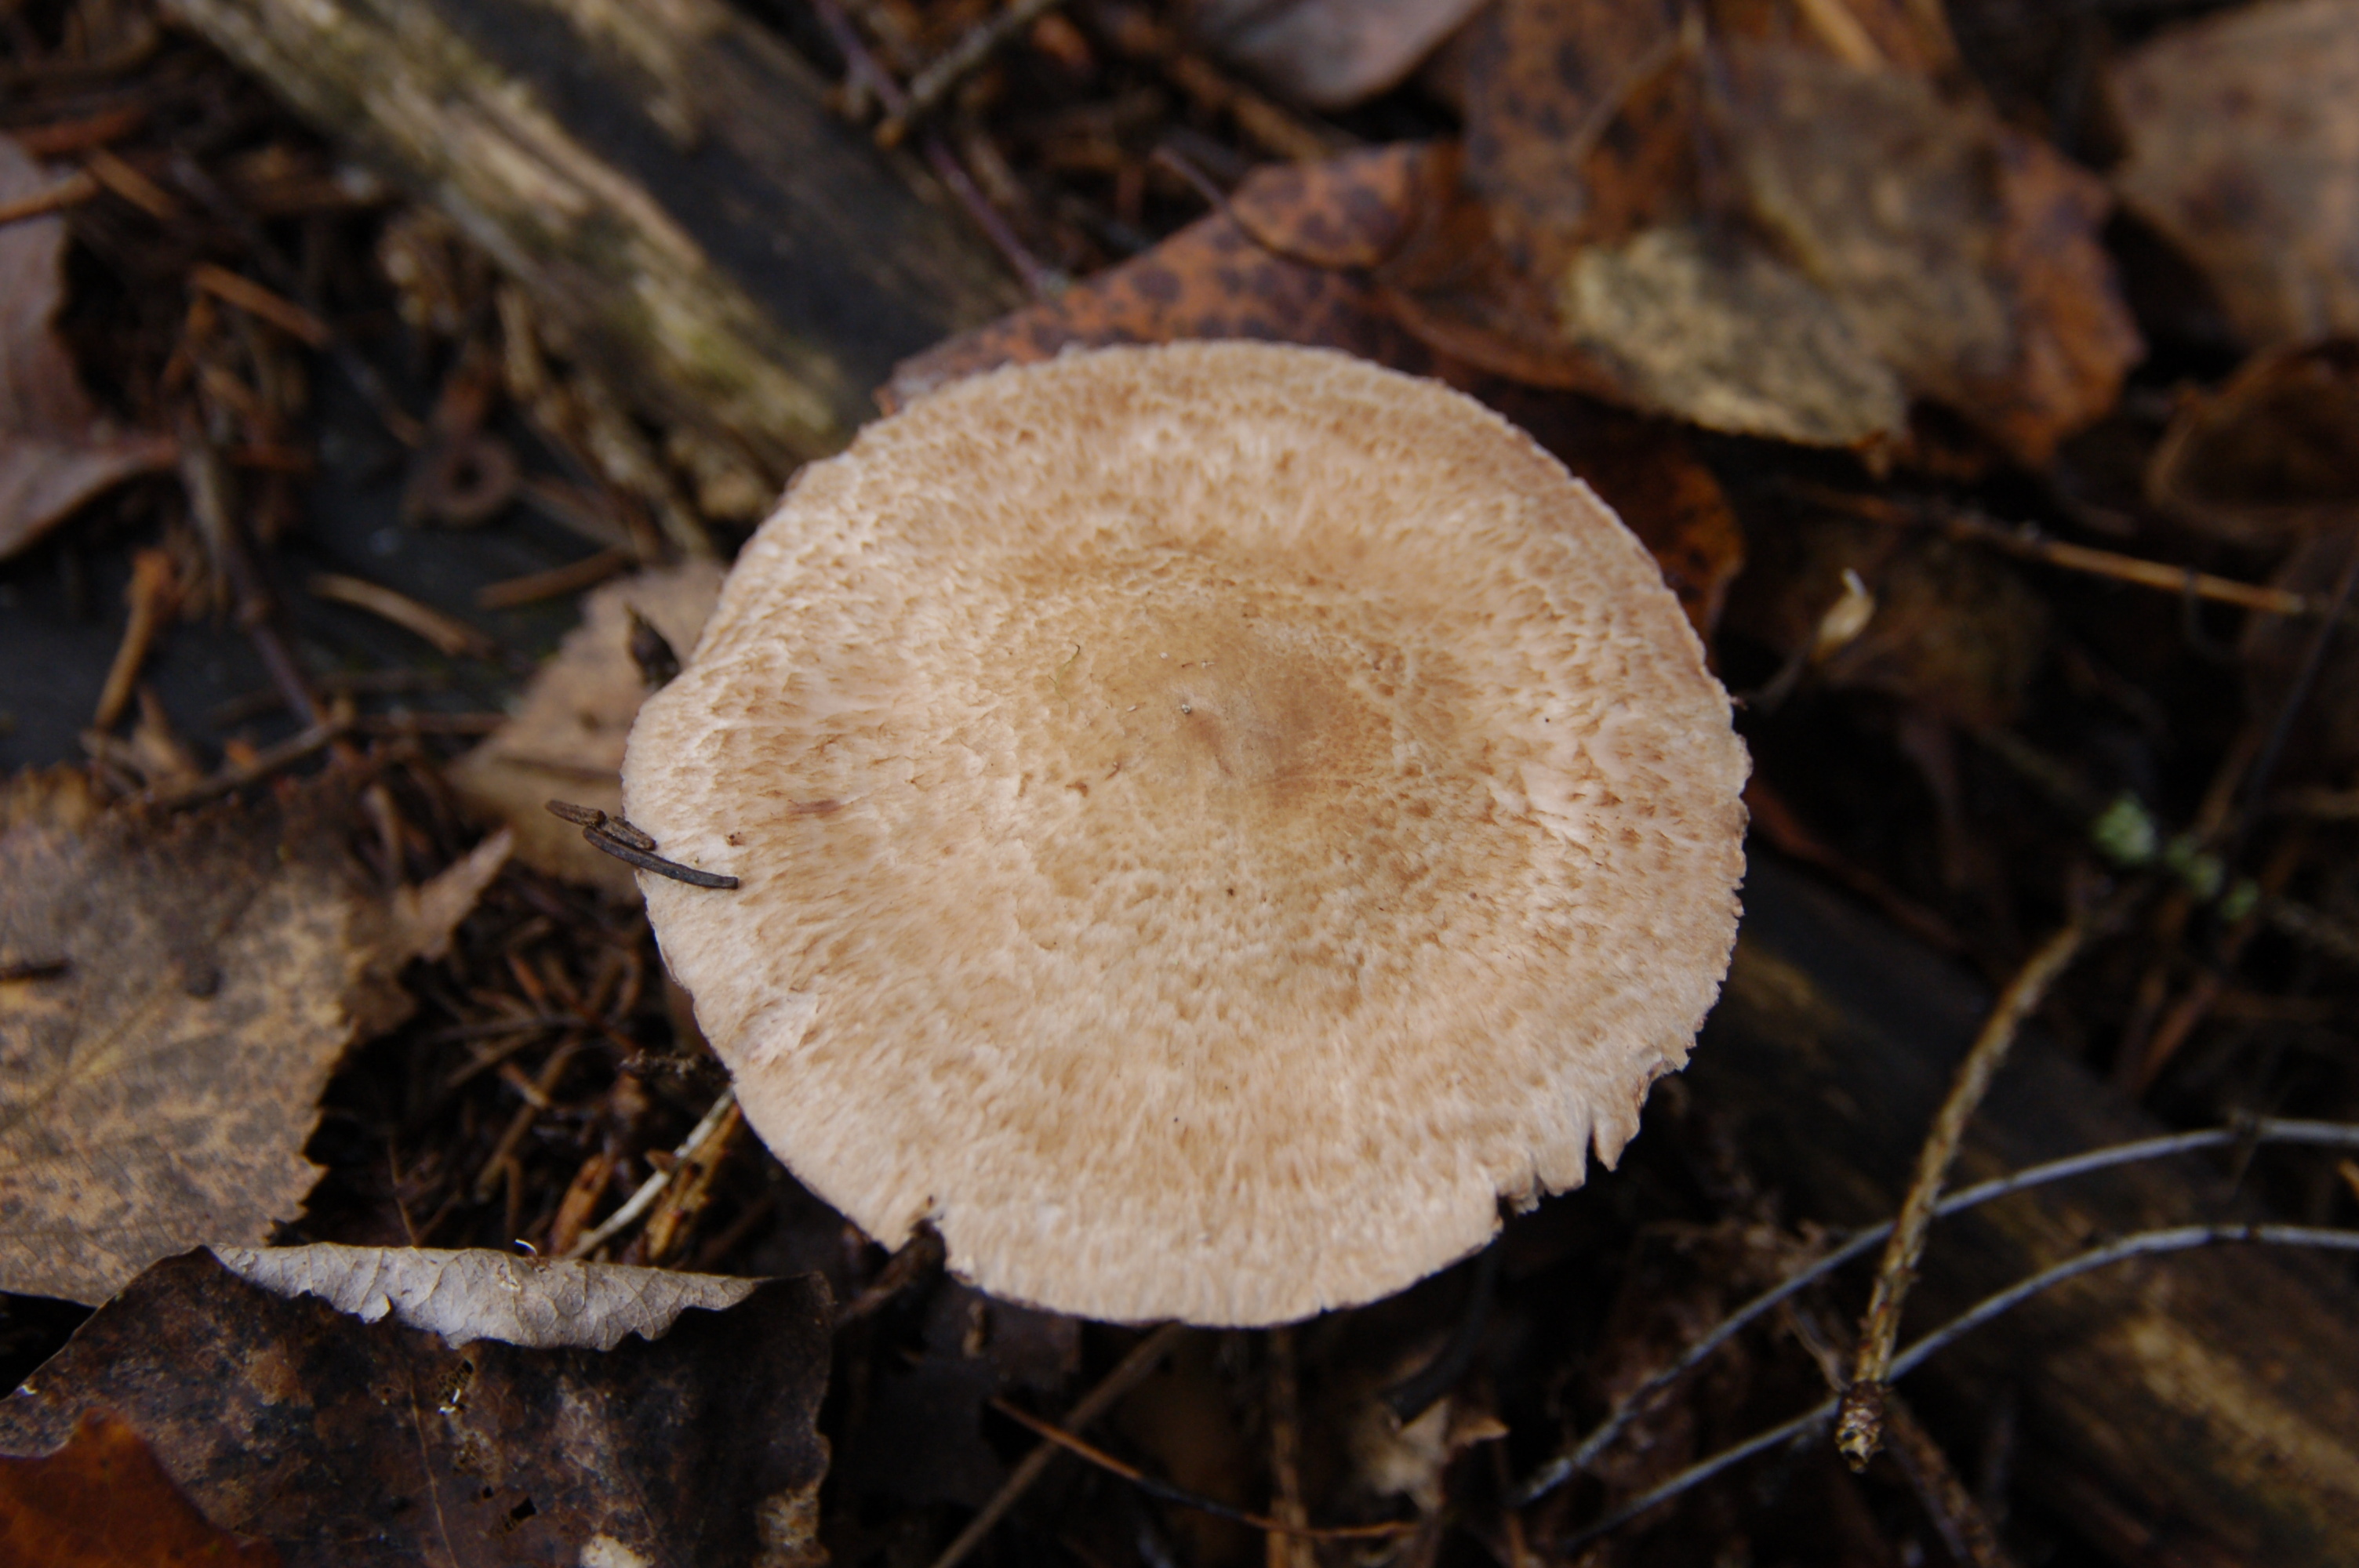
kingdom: Fungi
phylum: Basidiomycota
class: Agaricomycetes
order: Agaricales
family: Agaricaceae
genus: Agaricus
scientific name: Agaricus sylvaticus
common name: Blushing wood mushroom
